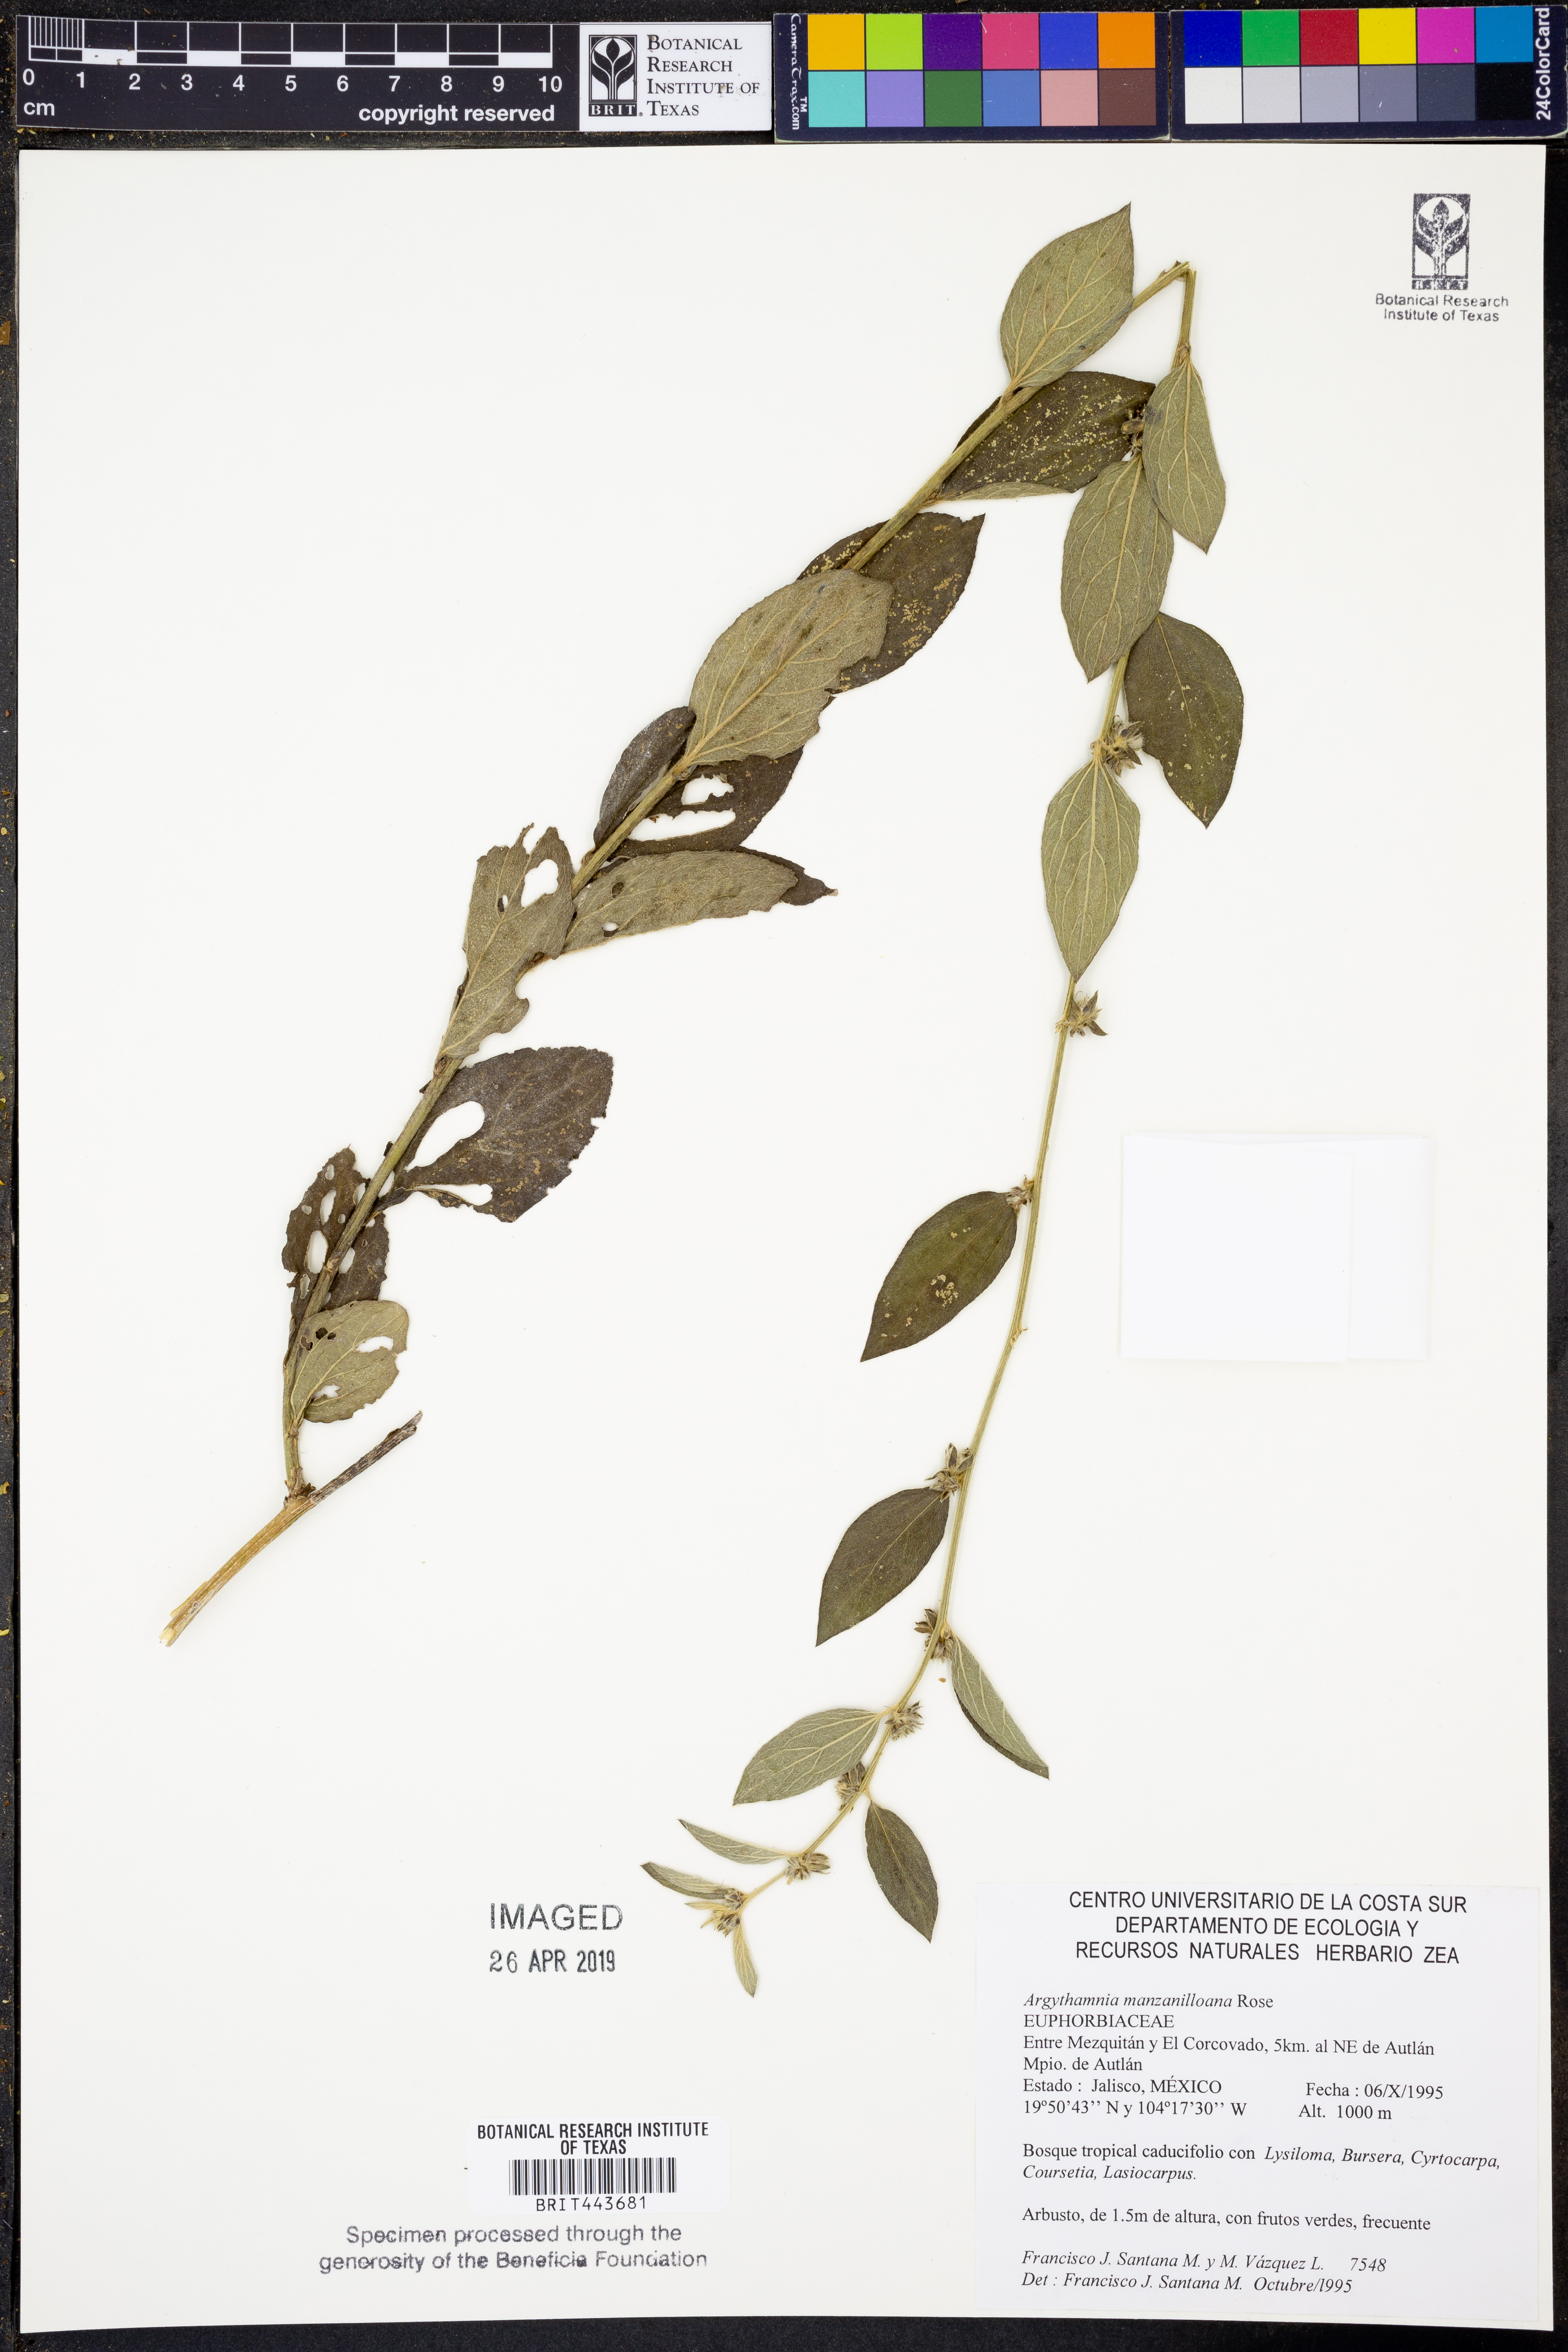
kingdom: Plantae
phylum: Tracheophyta
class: Magnoliopsida
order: Malpighiales
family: Euphorbiaceae
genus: Ditaxis
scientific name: Ditaxis manzanilloana
